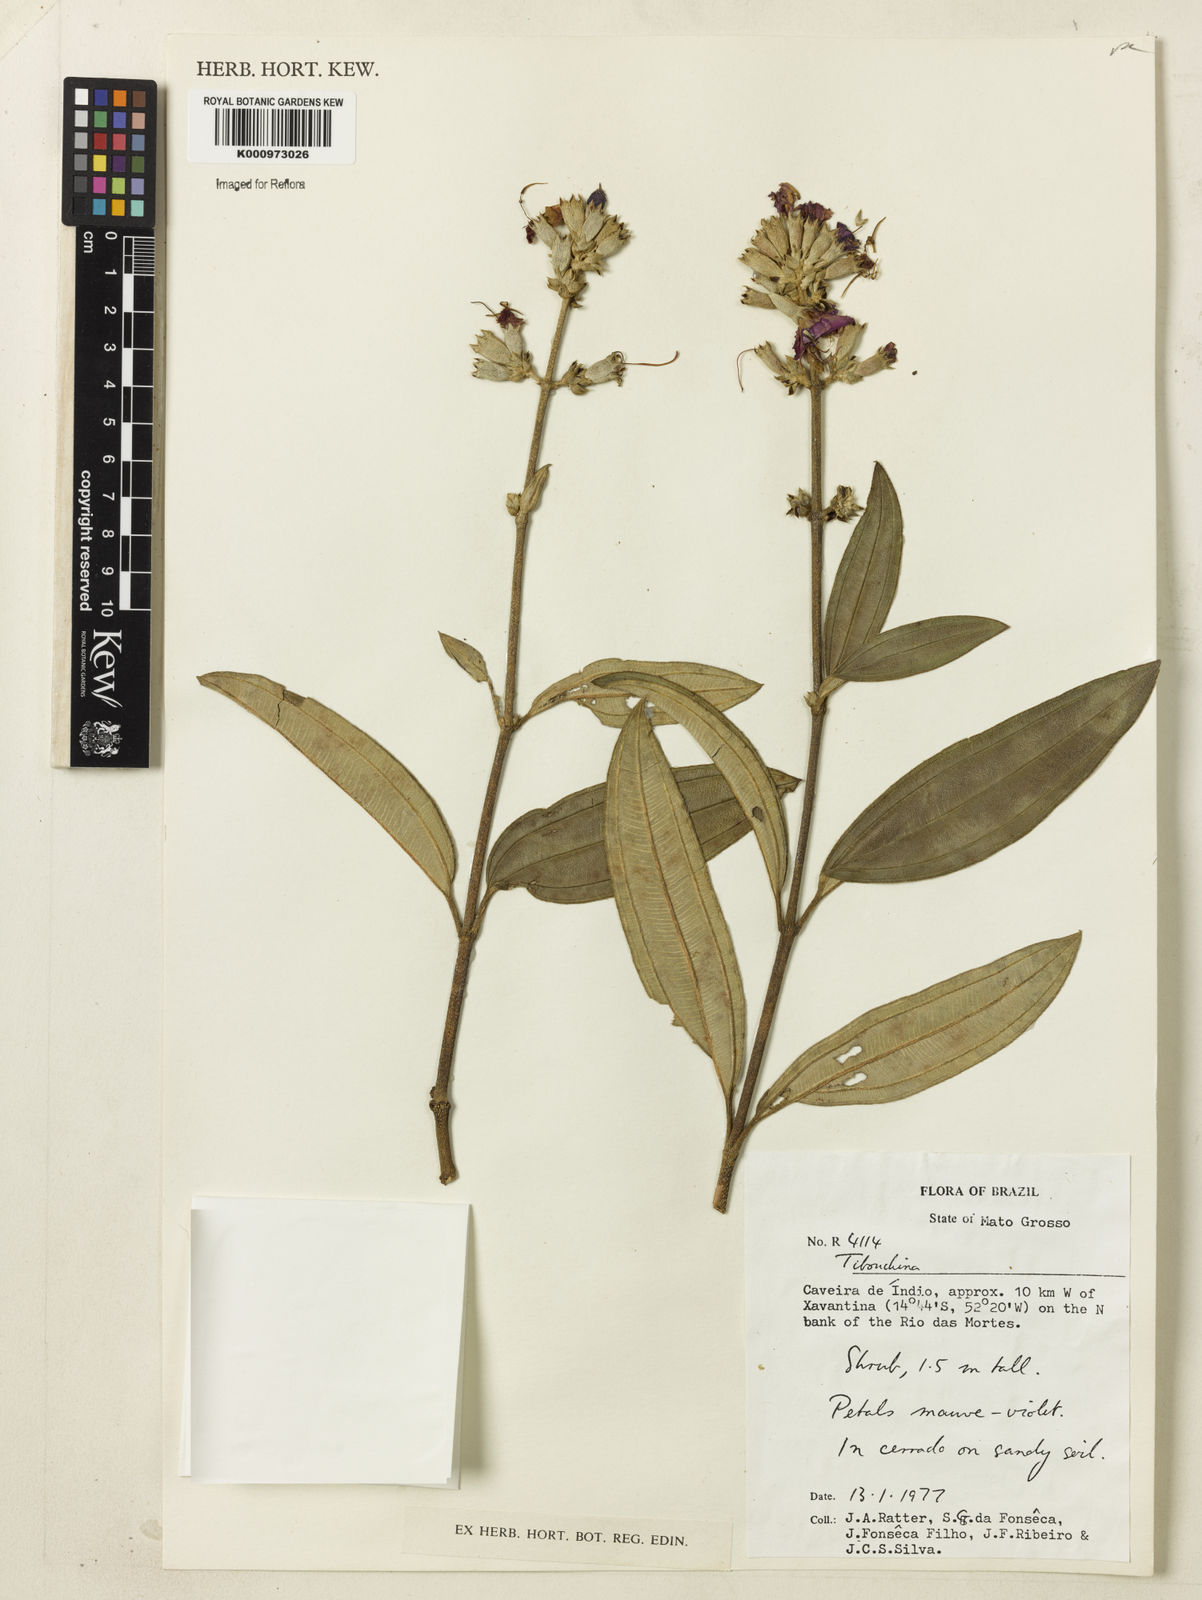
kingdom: Plantae
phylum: Tracheophyta
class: Magnoliopsida
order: Myrtales
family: Melastomataceae
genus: Tibouchina
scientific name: Tibouchina
